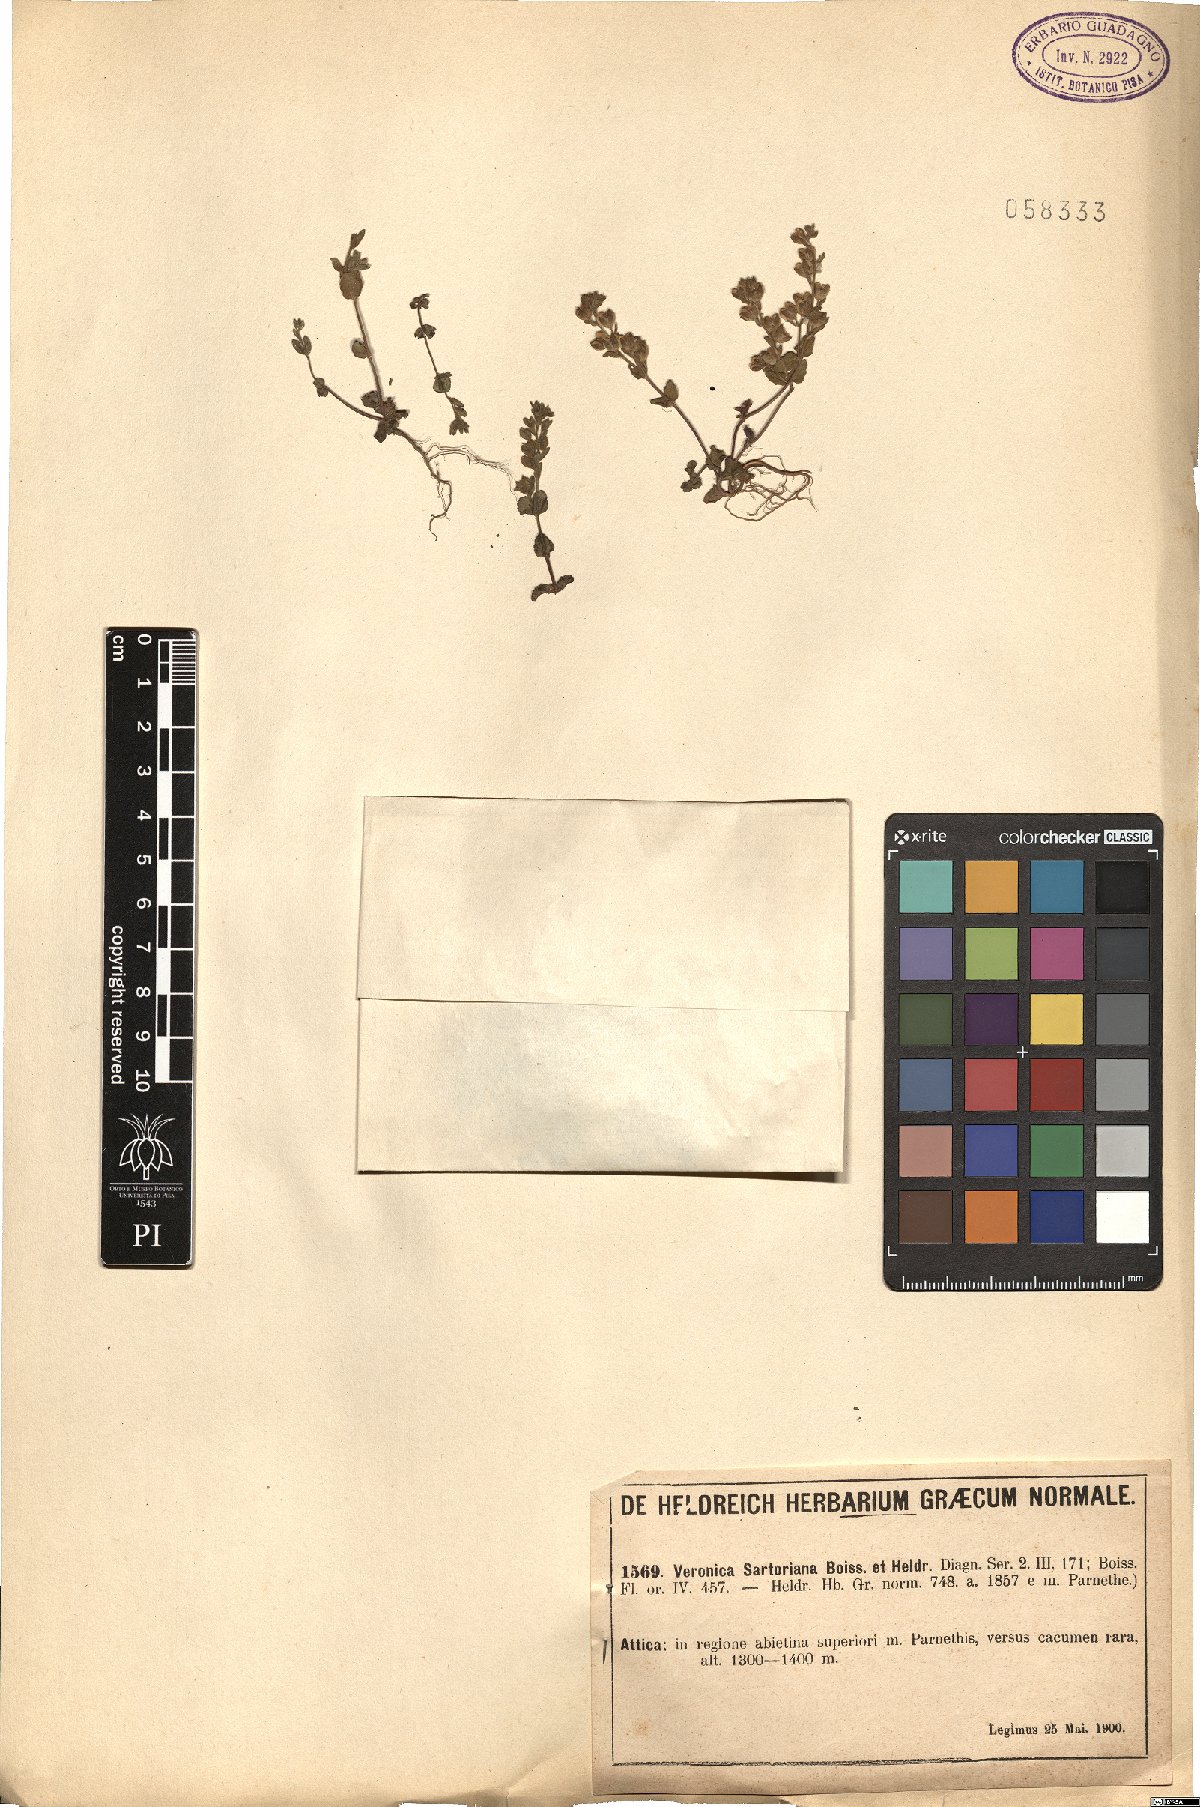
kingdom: Plantae
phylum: Tracheophyta
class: Magnoliopsida
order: Lamiales
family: Plantaginaceae
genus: Veronica
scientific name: Veronica sartoriana
